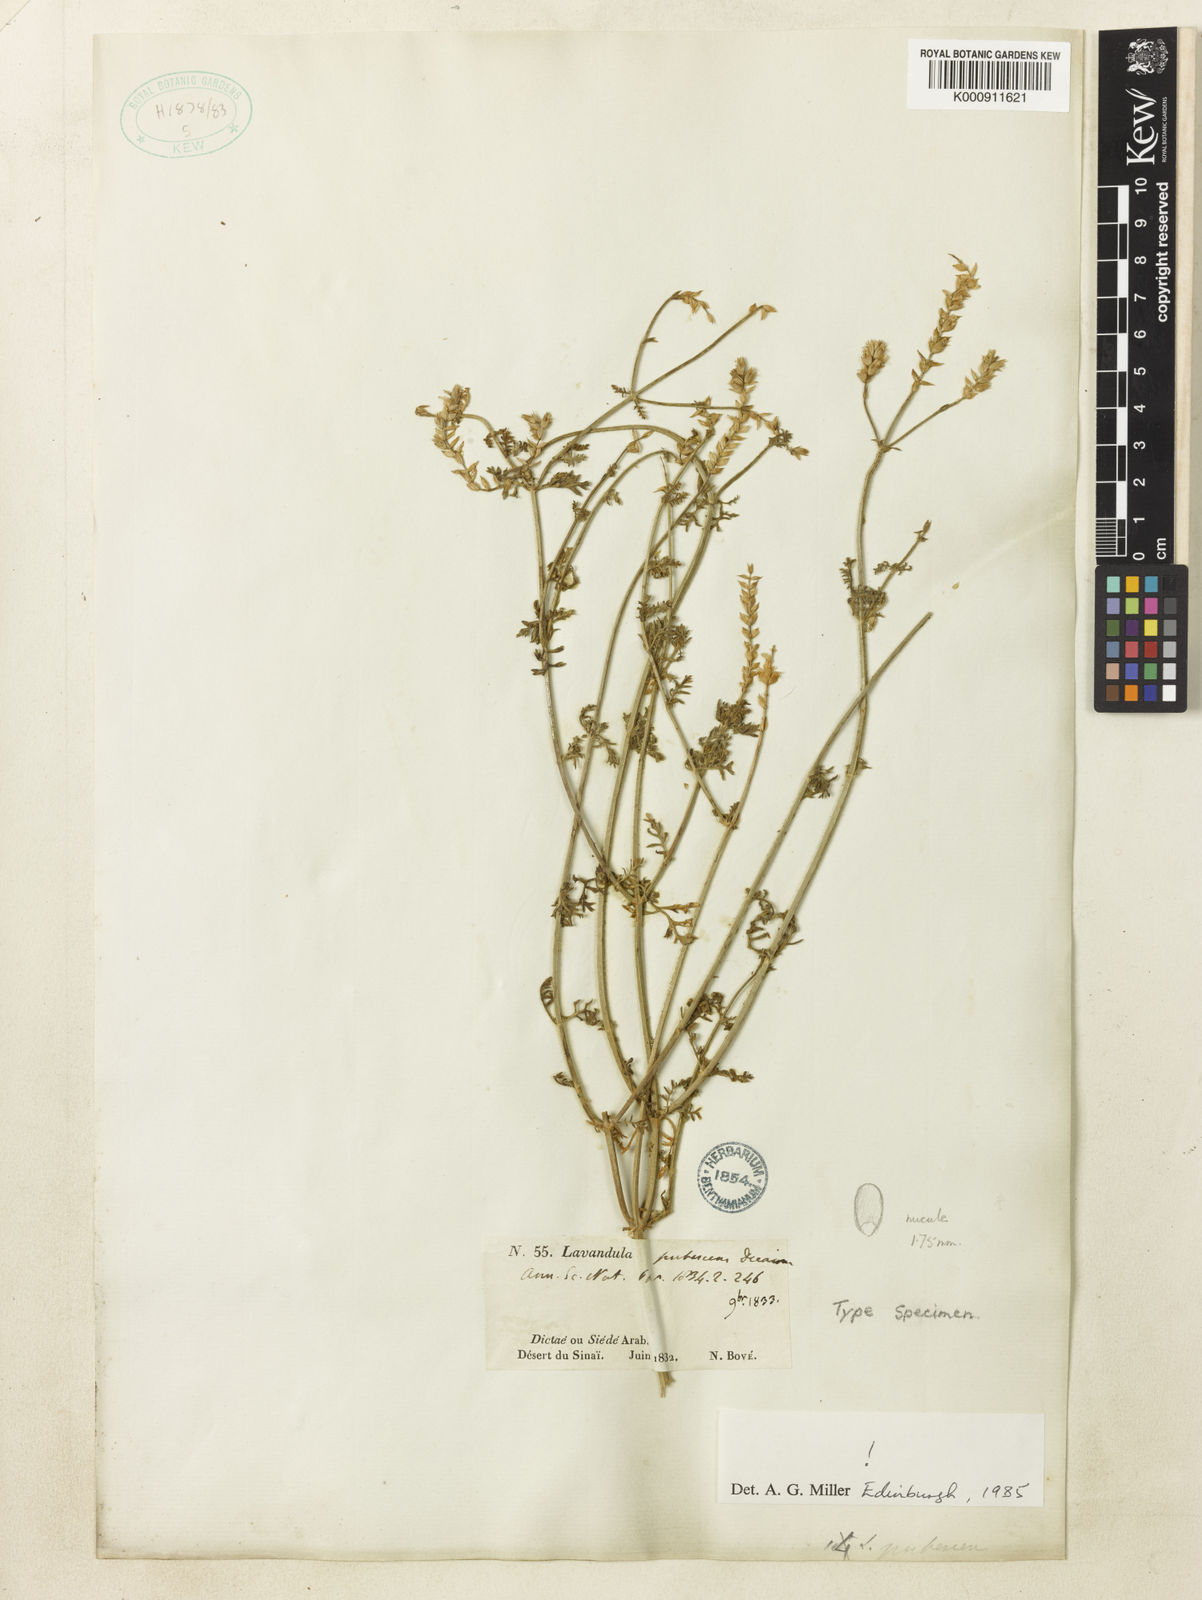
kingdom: Plantae
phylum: Tracheophyta
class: Magnoliopsida
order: Lamiales
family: Lamiaceae
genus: Lavandula
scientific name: Lavandula pubescens
